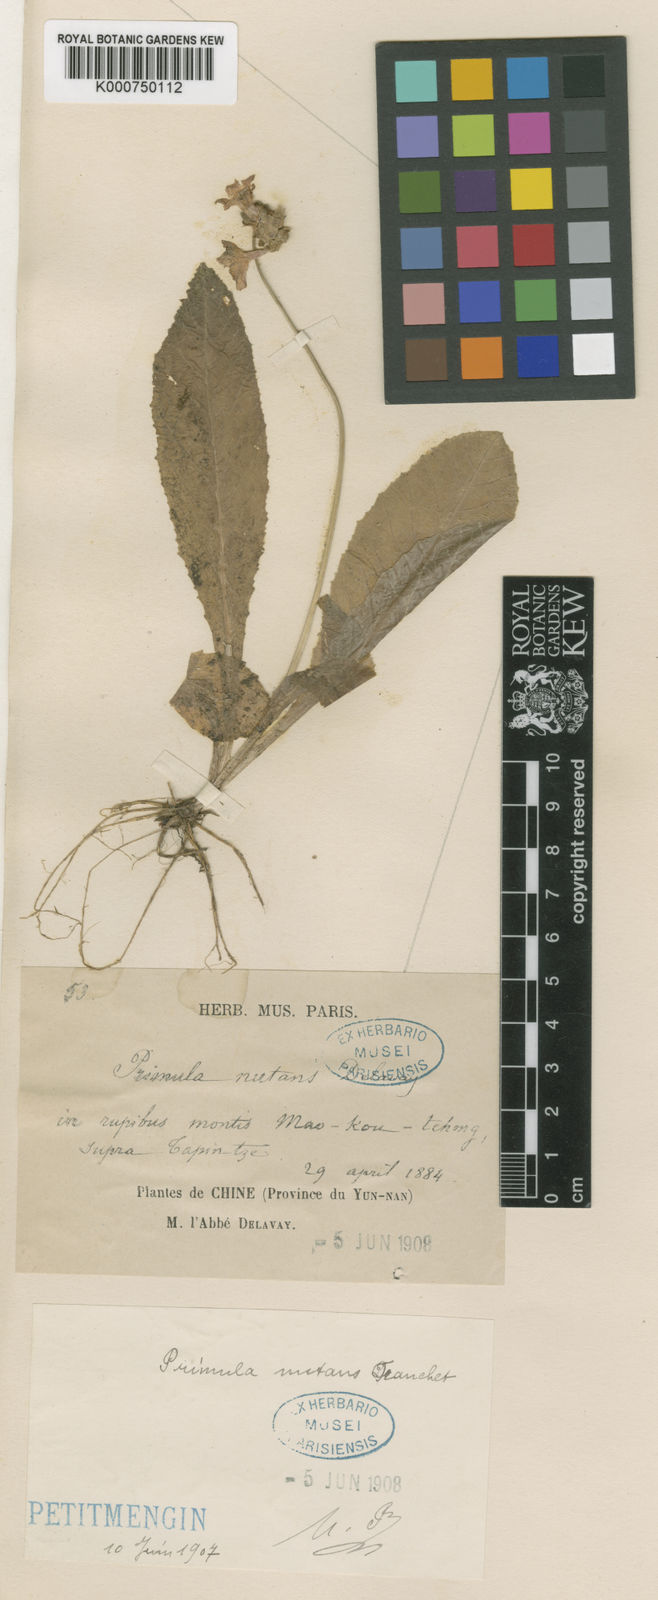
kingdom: Plantae
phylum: Tracheophyta
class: Magnoliopsida
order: Ericales
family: Primulaceae
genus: Primula
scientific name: Primula
